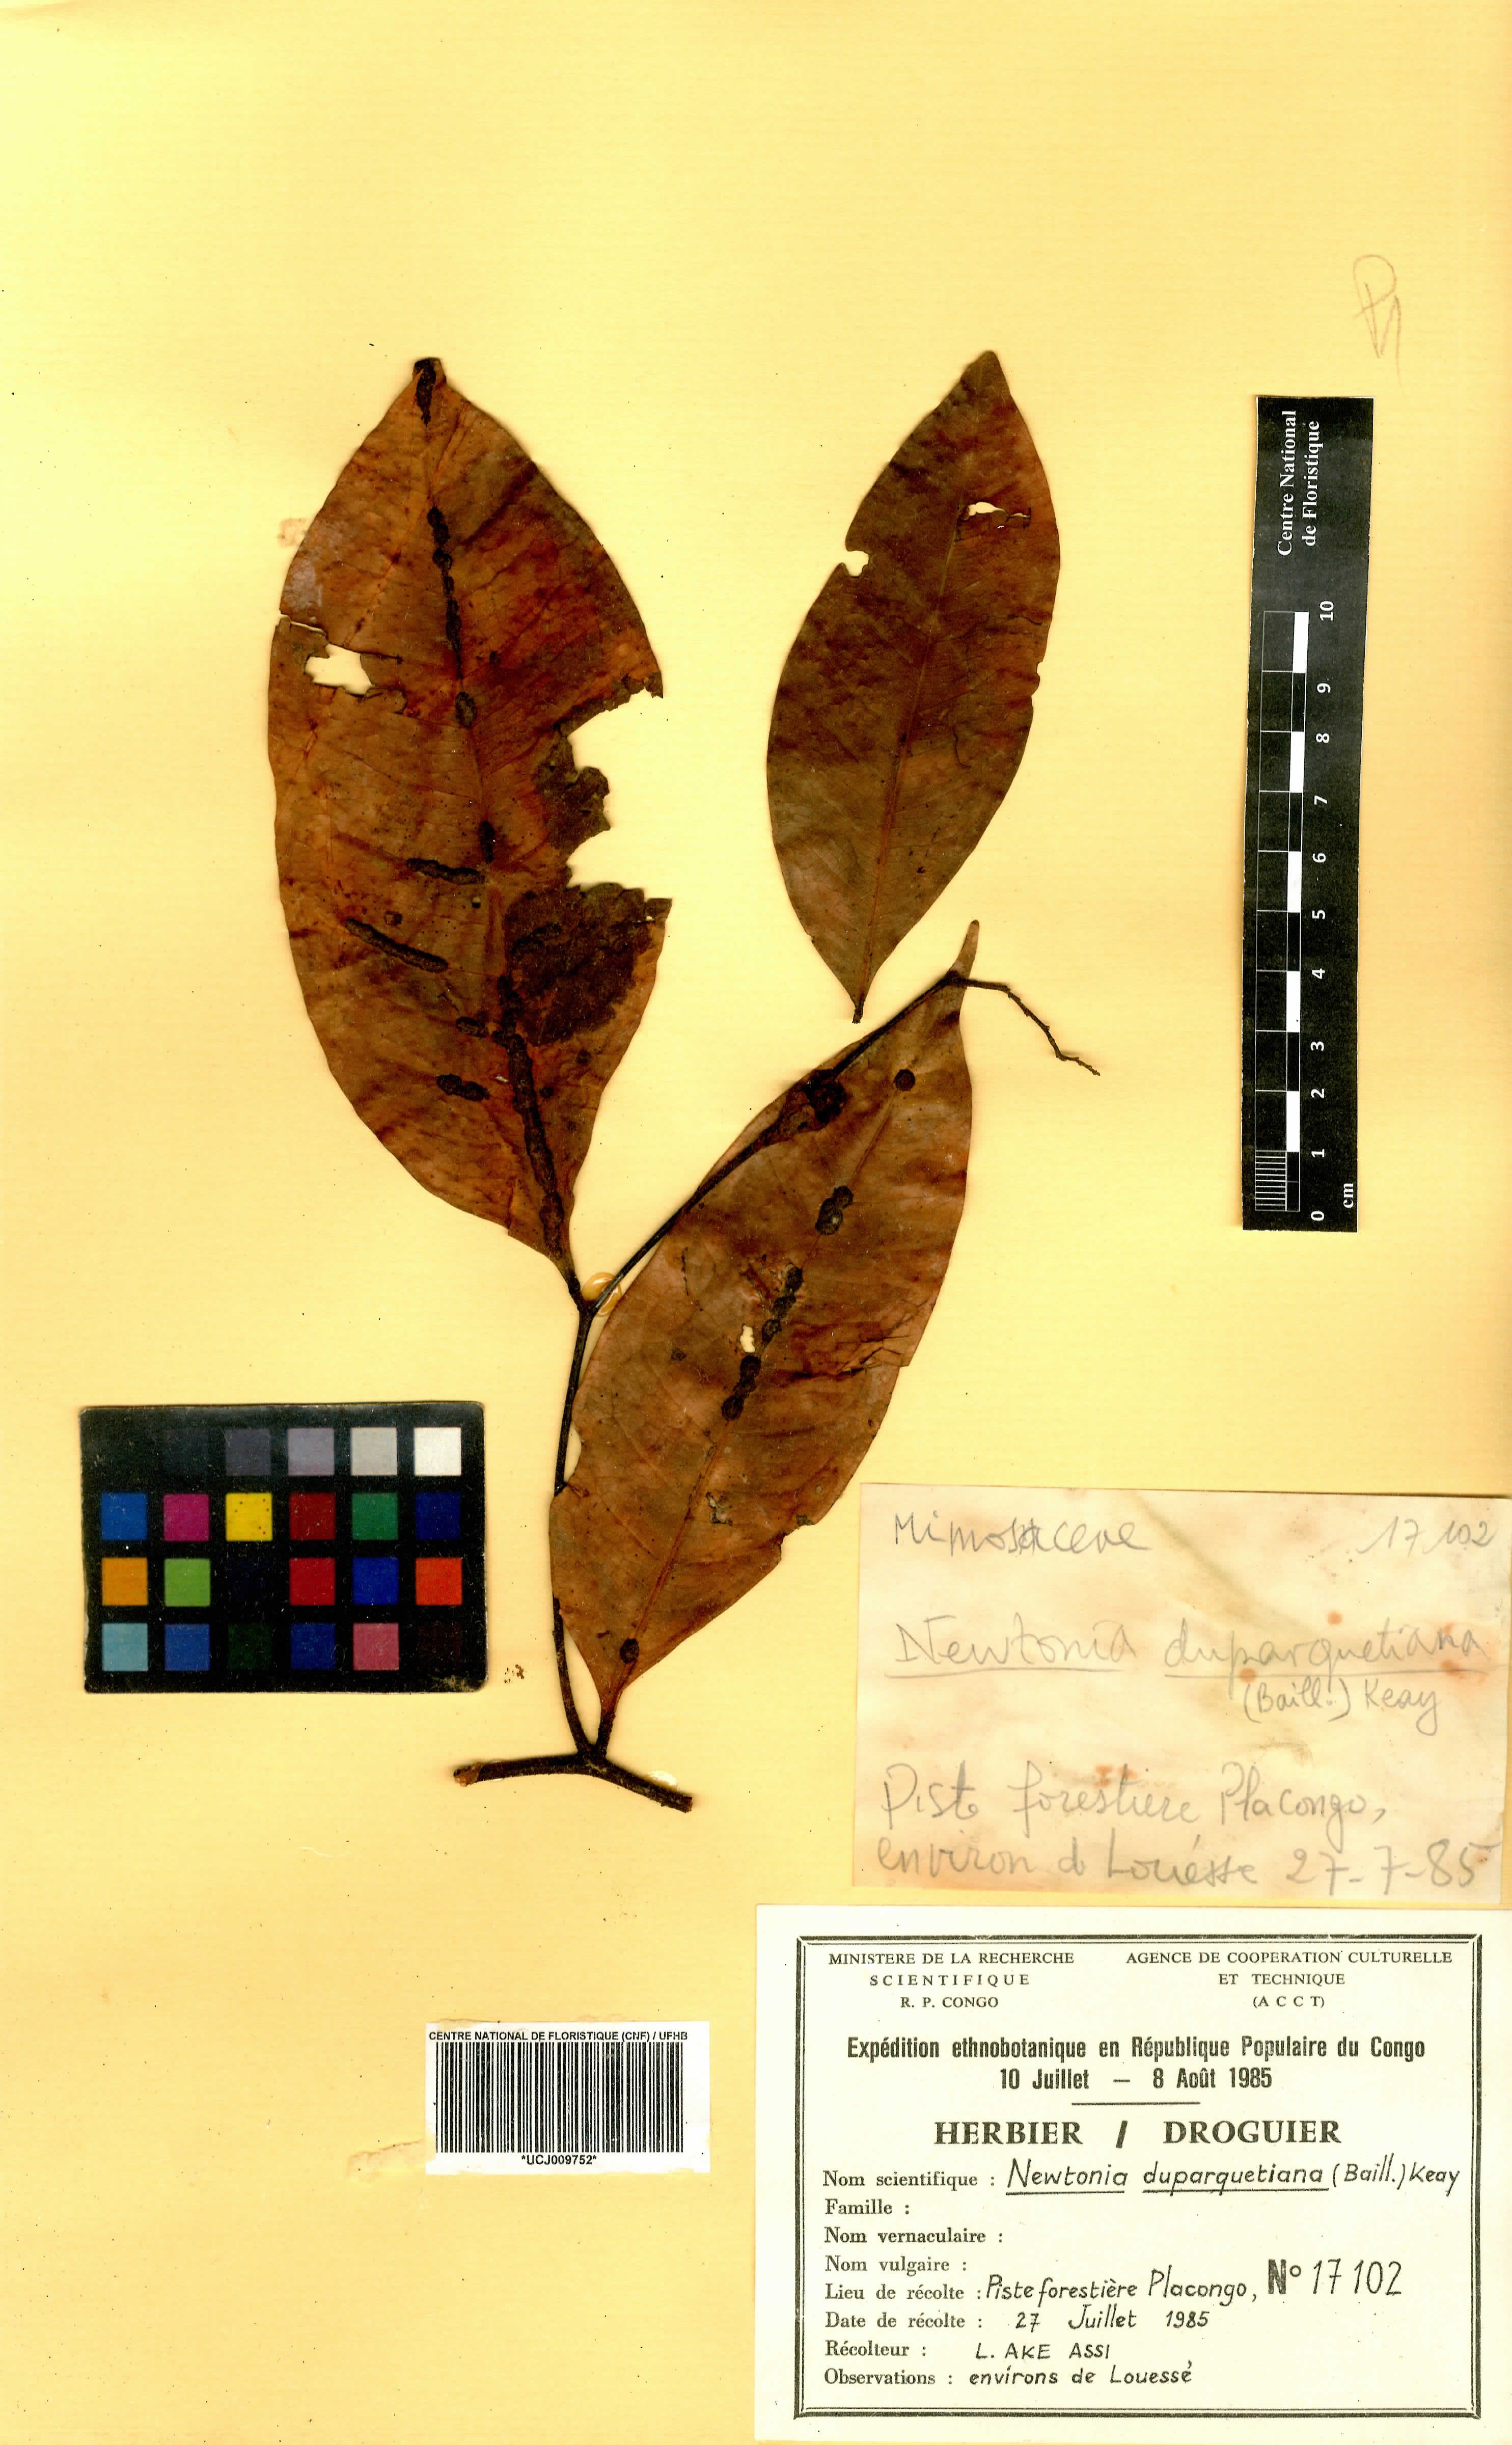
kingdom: Plantae
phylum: Tracheophyta
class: Magnoliopsida
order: Fabales
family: Fabaceae
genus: Newtonia
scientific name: Newtonia duparquetiana
